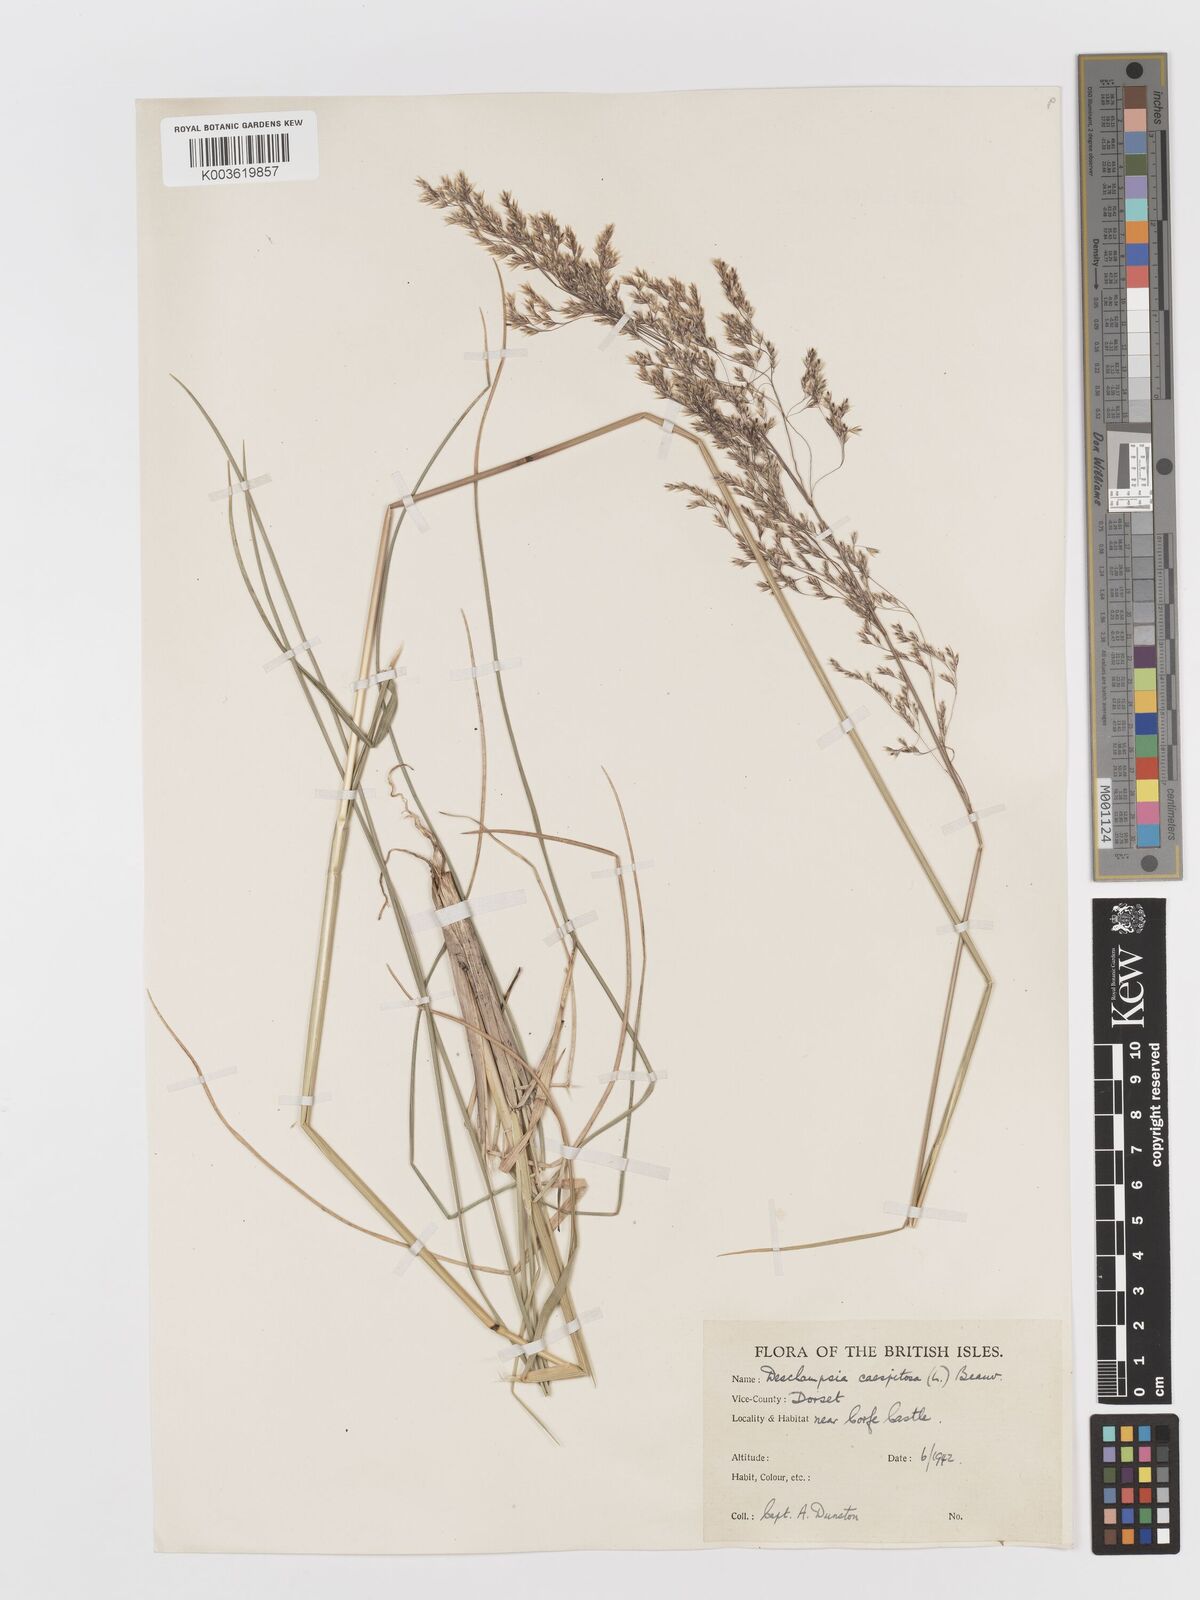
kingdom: Plantae
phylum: Tracheophyta
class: Liliopsida
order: Poales
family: Poaceae
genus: Deschampsia
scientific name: Deschampsia cespitosa
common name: Tufted hair-grass
